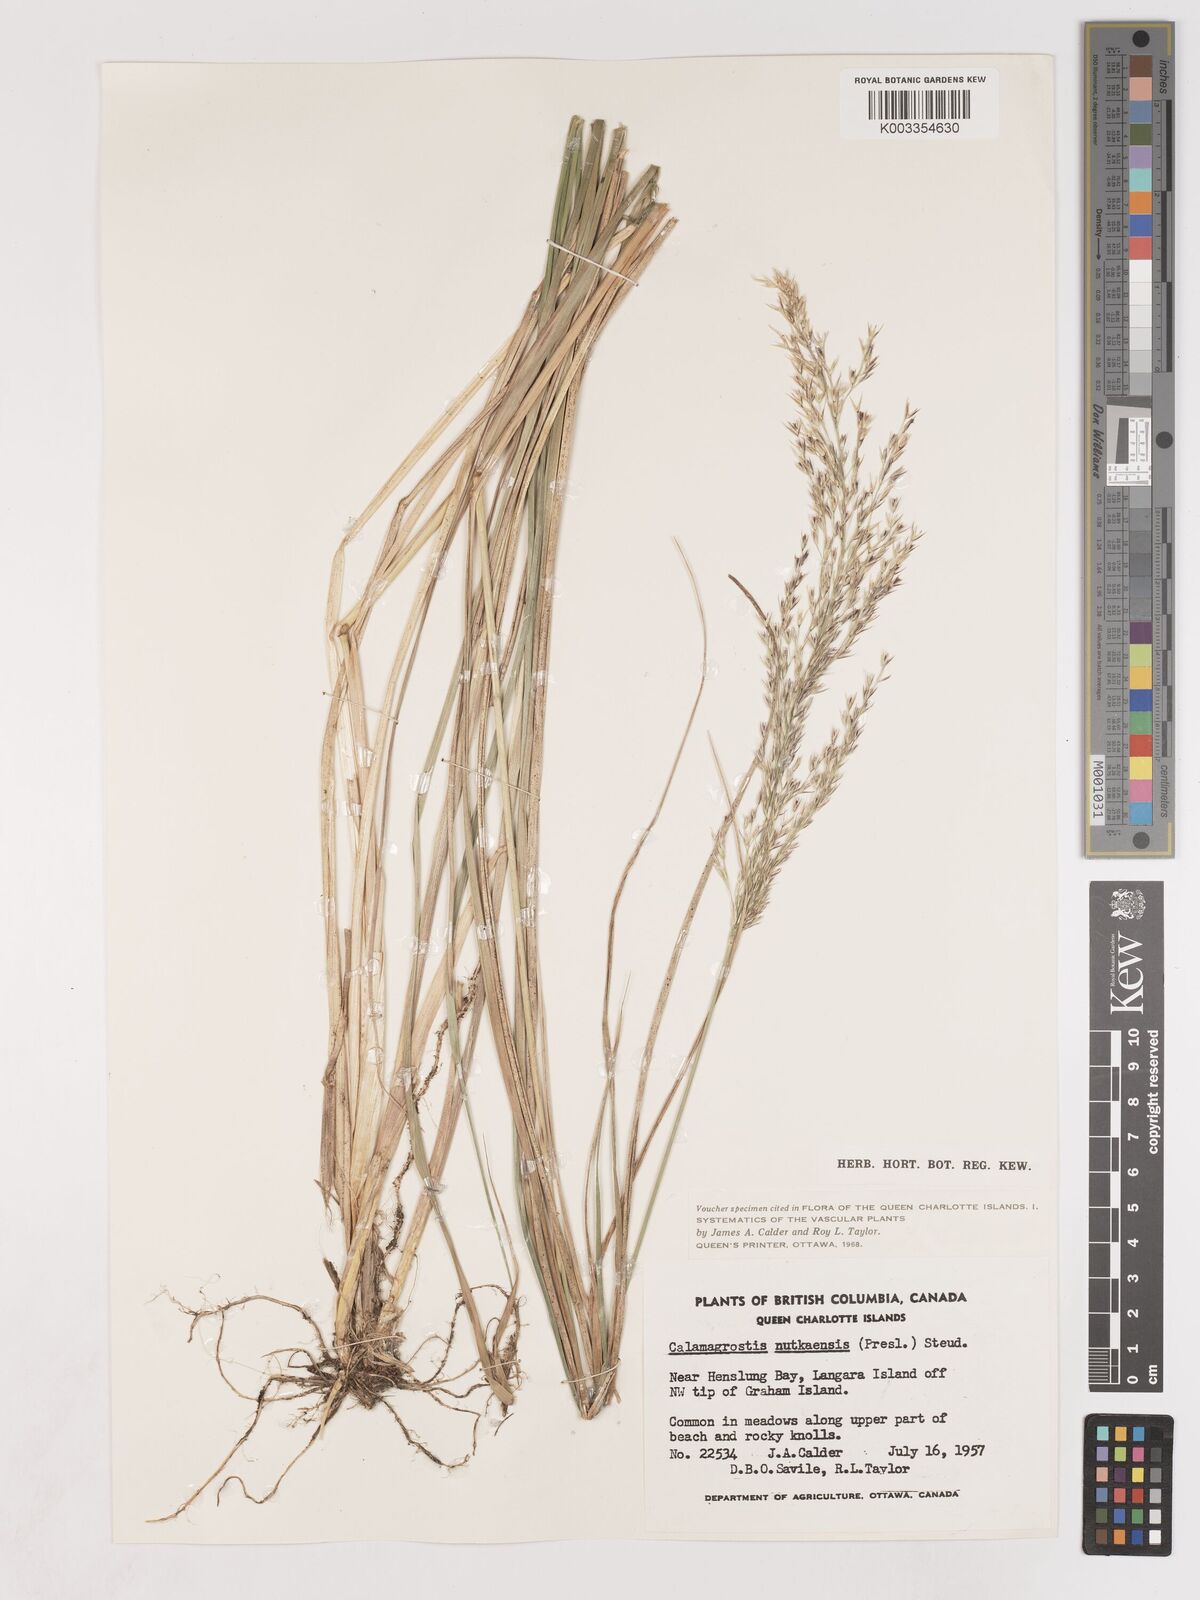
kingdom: Plantae
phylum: Tracheophyta
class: Liliopsida
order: Poales
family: Poaceae
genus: Calamagrostis
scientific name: Calamagrostis nutkaensis
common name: Pacific reed grass
